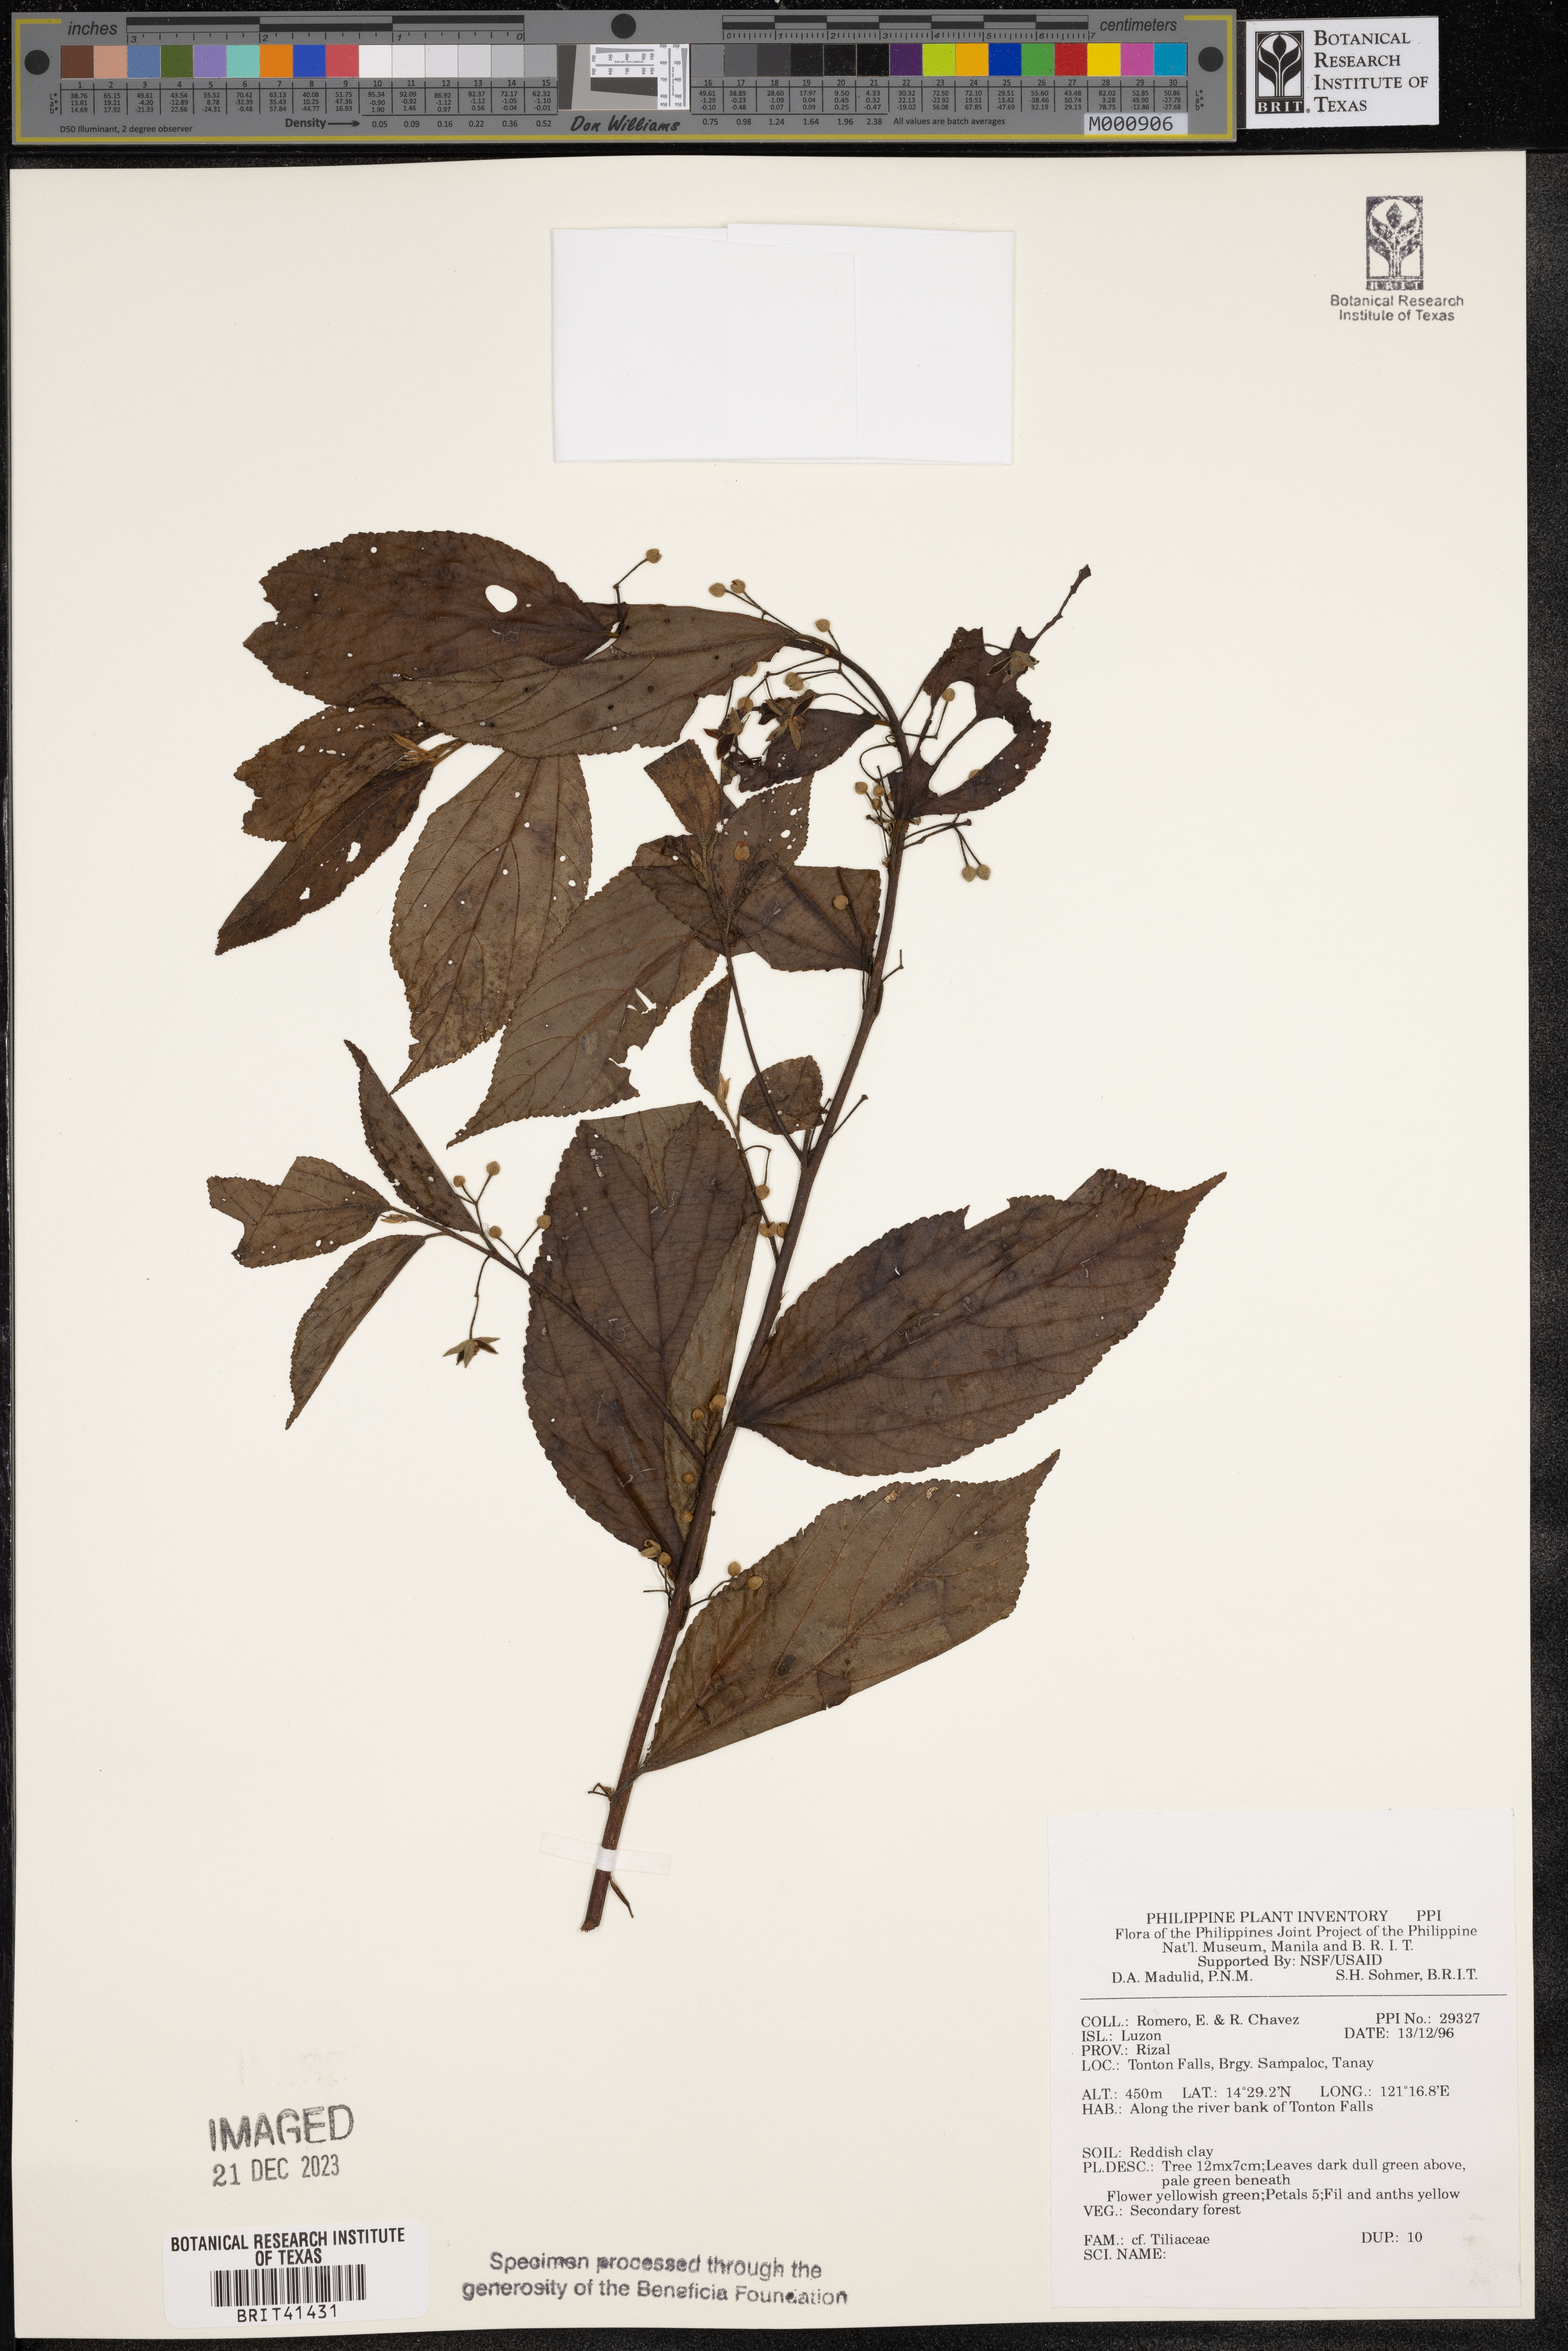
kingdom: Plantae
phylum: Tracheophyta
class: Magnoliopsida
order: Malvales
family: Tiliaceae
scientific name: Tiliaceae
